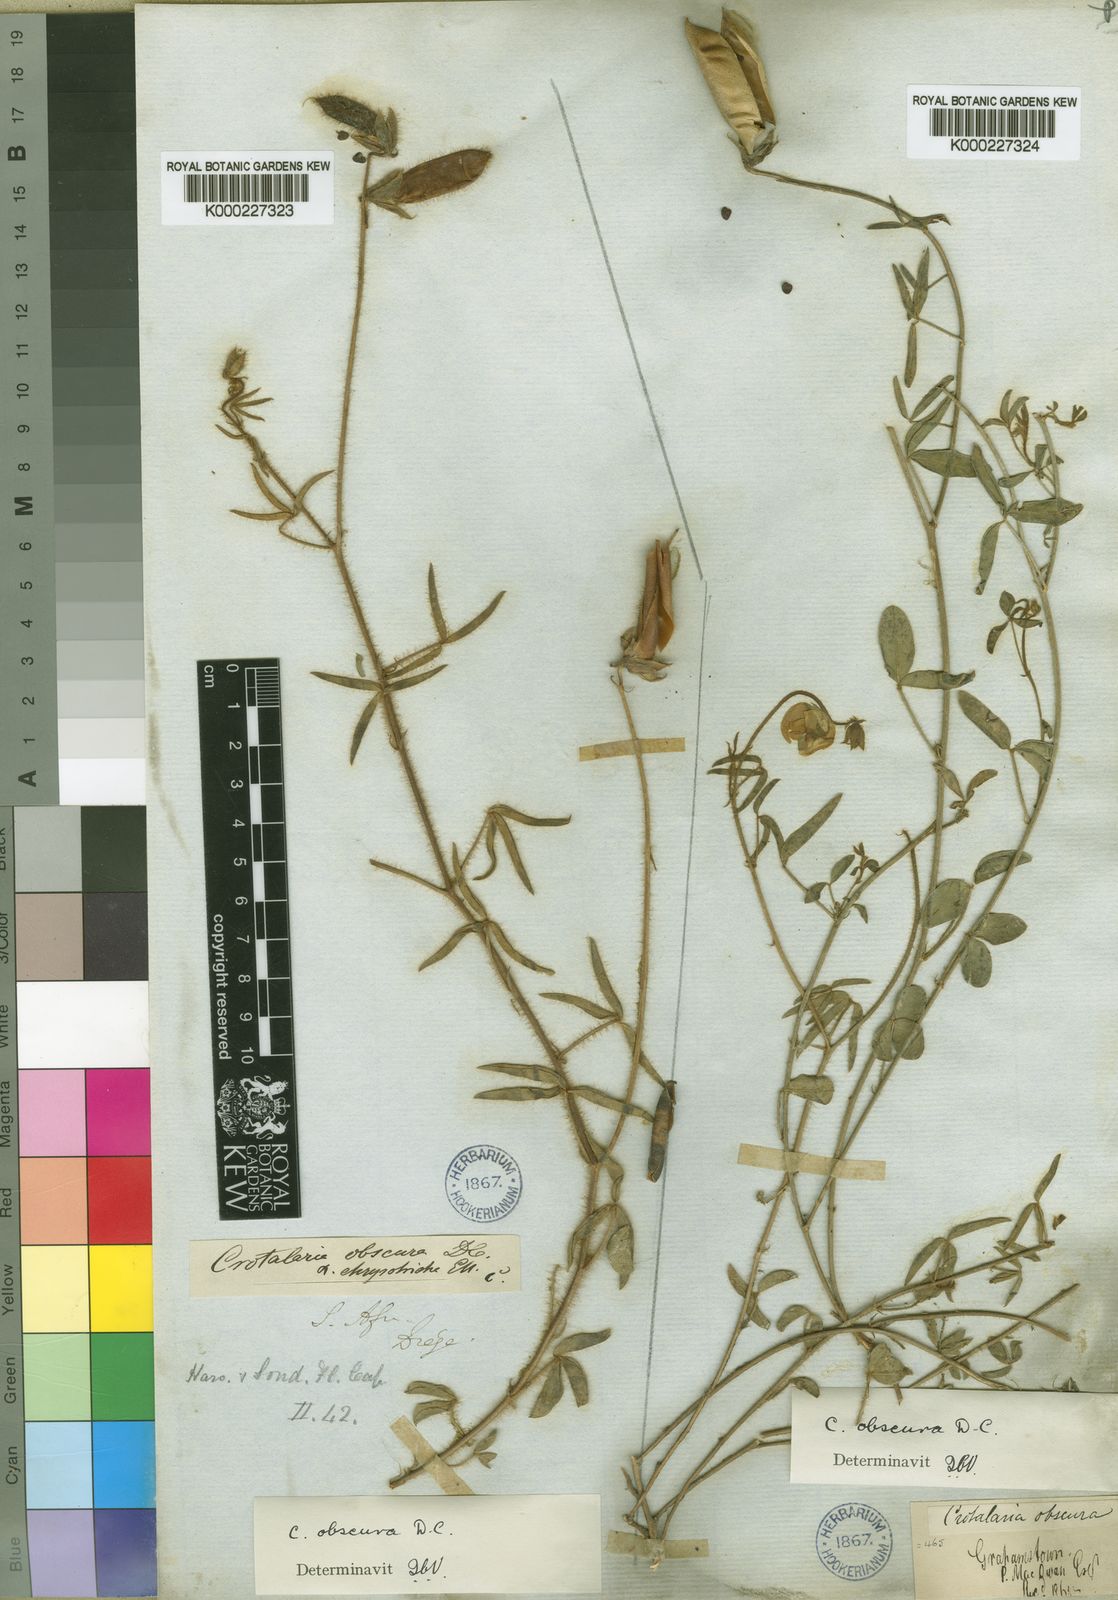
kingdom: Plantae
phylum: Tracheophyta
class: Magnoliopsida
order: Fabales
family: Fabaceae
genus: Crotalaria
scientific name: Crotalaria obscura
